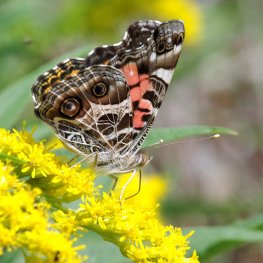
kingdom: Animalia
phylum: Arthropoda
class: Insecta
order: Lepidoptera
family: Nymphalidae
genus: Vanessa
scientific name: Vanessa virginiensis
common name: American Lady
